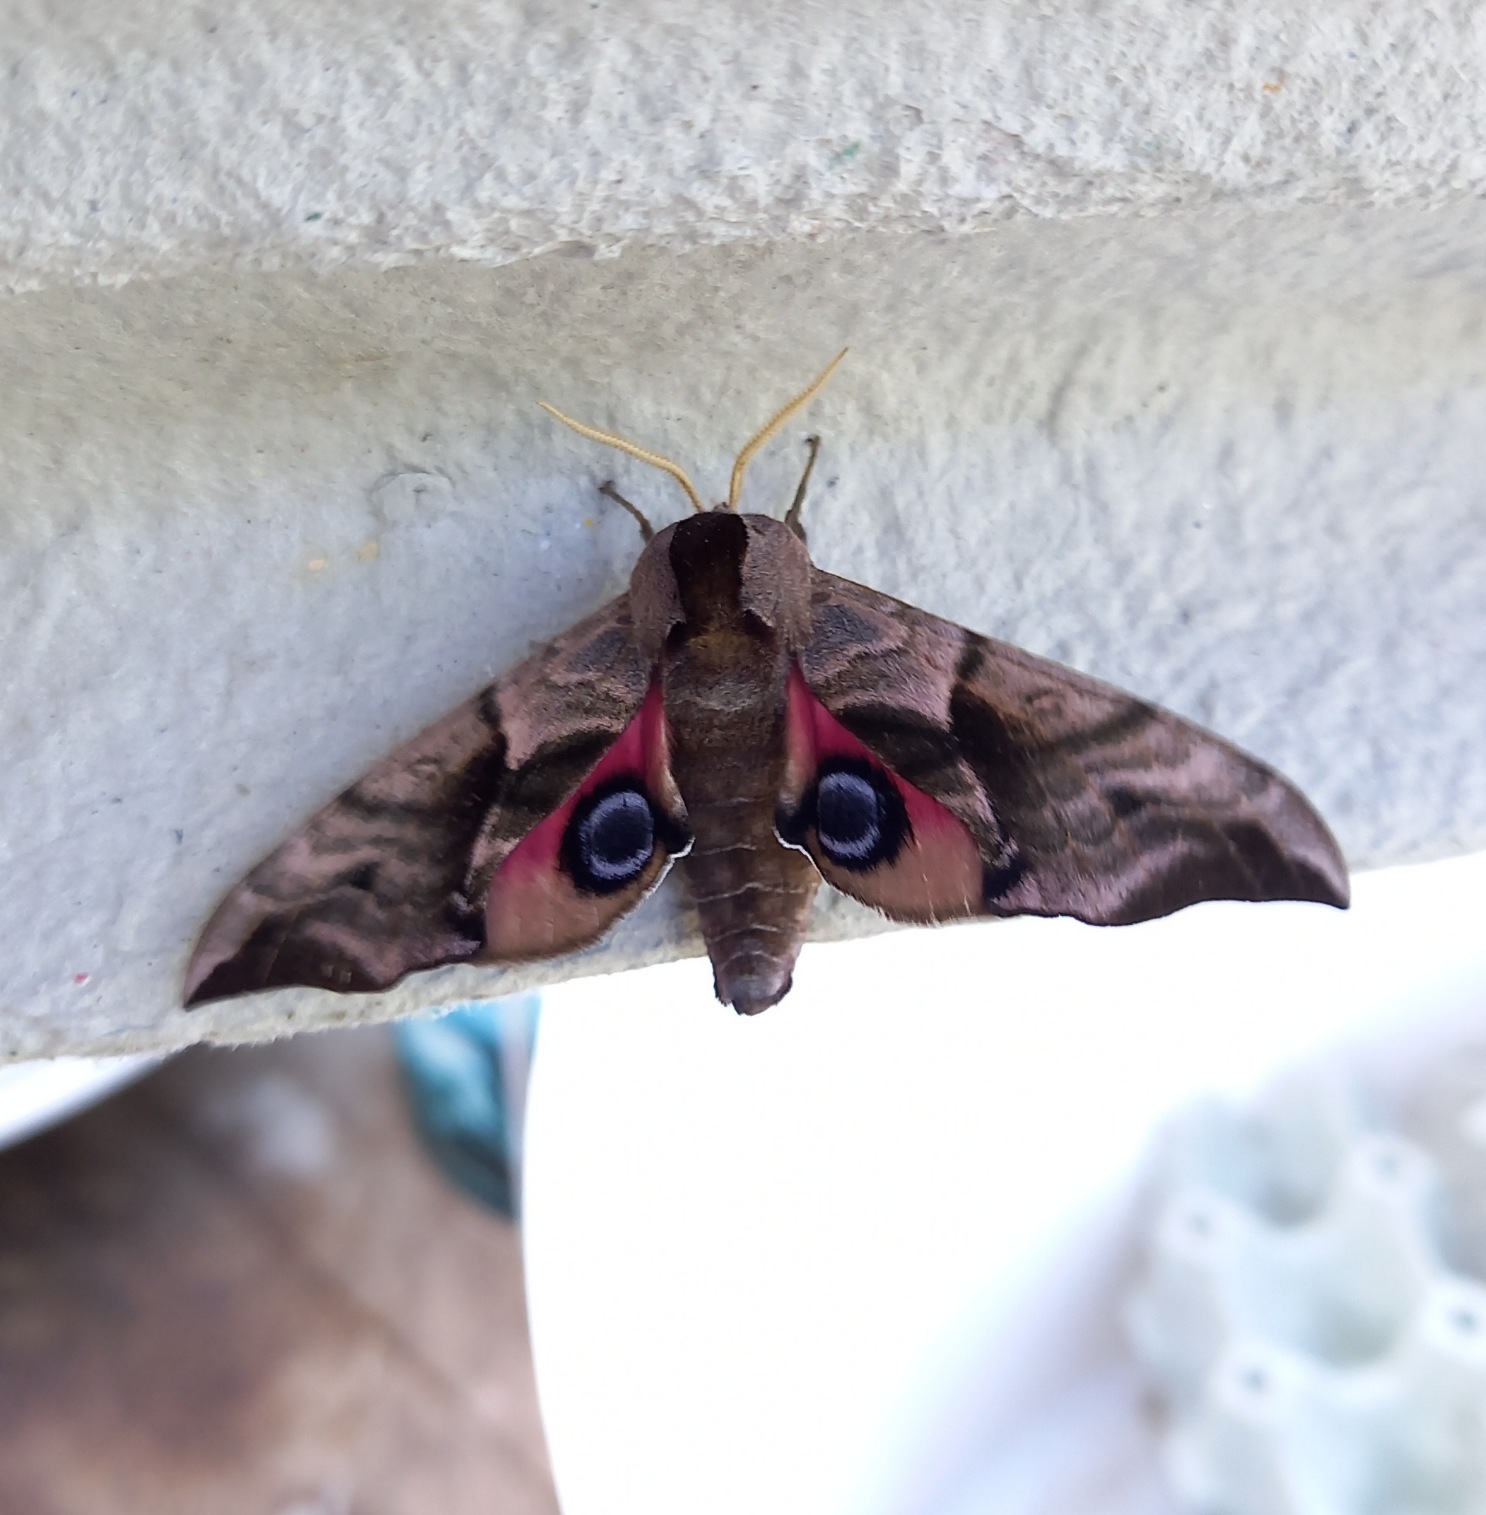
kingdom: Animalia
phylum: Arthropoda
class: Insecta
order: Lepidoptera
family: Sphingidae
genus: Smerinthus
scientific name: Smerinthus ocellata
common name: Aftenpåfugleøje
